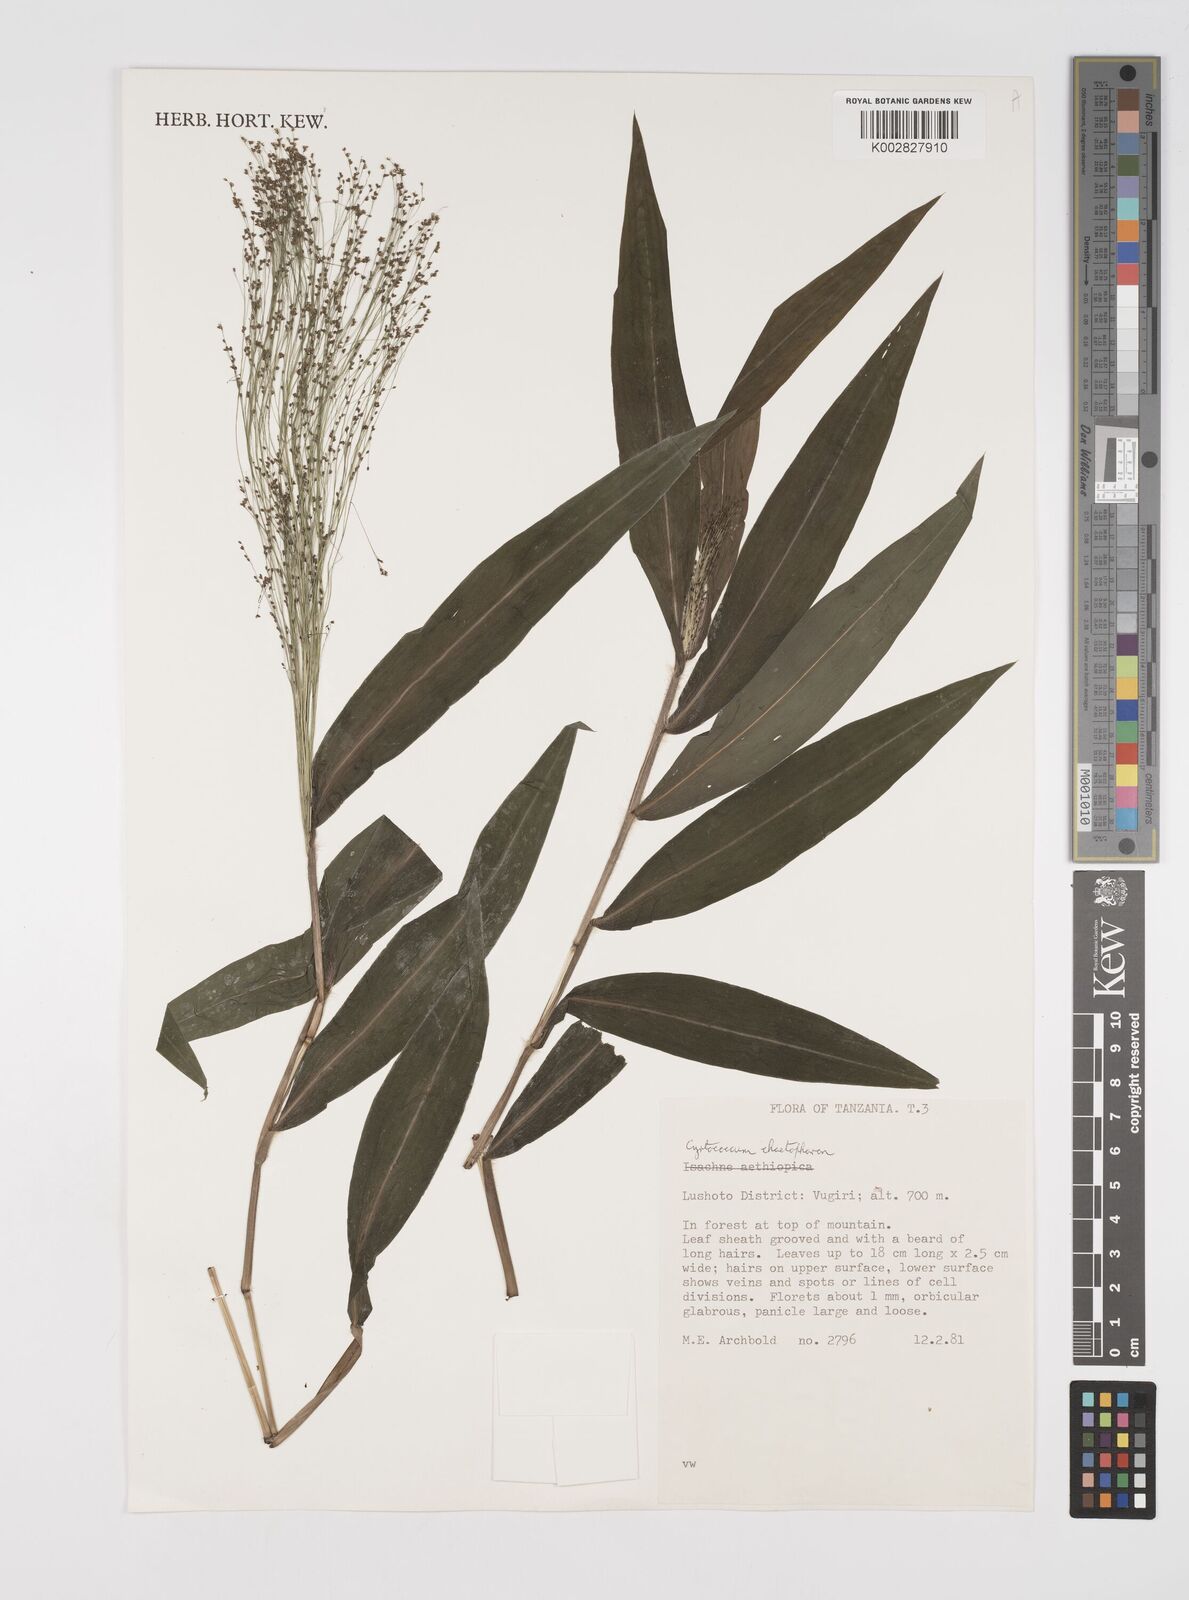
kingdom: Plantae
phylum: Tracheophyta
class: Liliopsida
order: Poales
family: Poaceae
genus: Cyrtococcum
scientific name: Cyrtococcum chaetophoron
